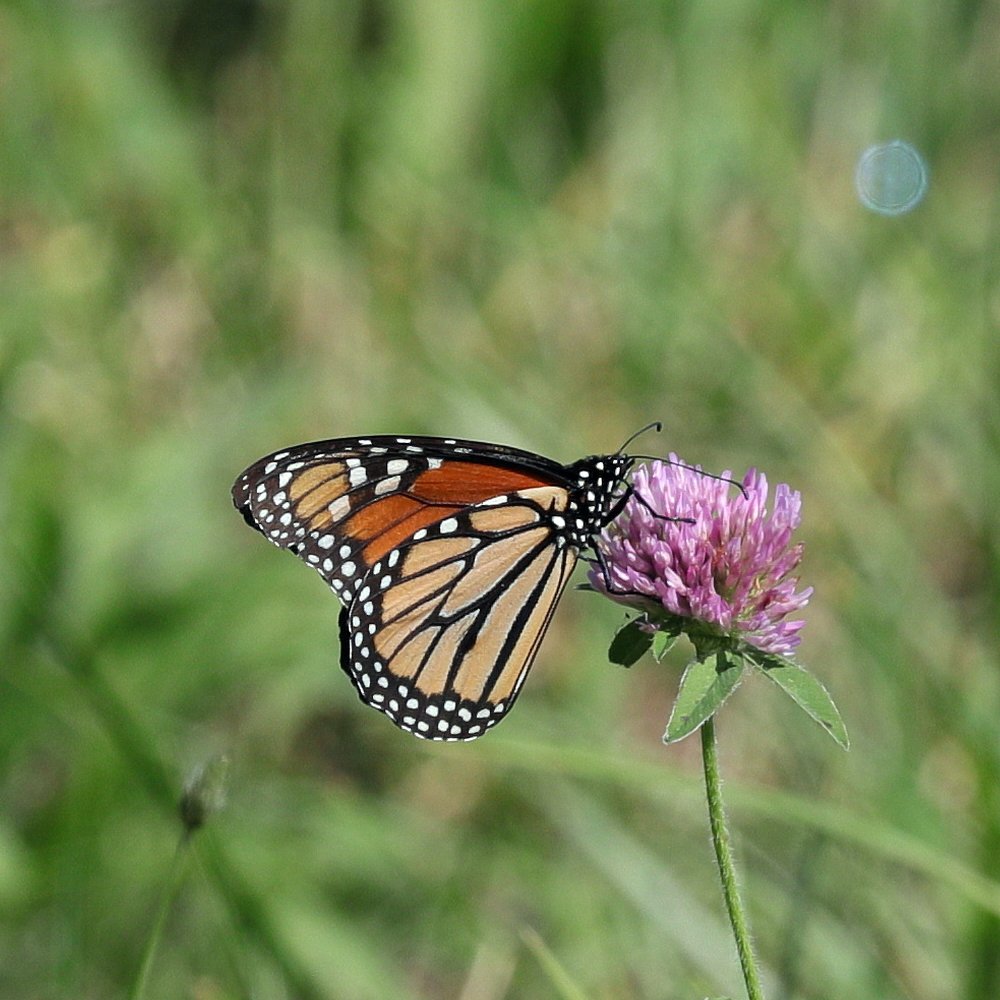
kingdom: Animalia
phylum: Arthropoda
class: Insecta
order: Lepidoptera
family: Nymphalidae
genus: Danaus
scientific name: Danaus plexippus
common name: Monarch
